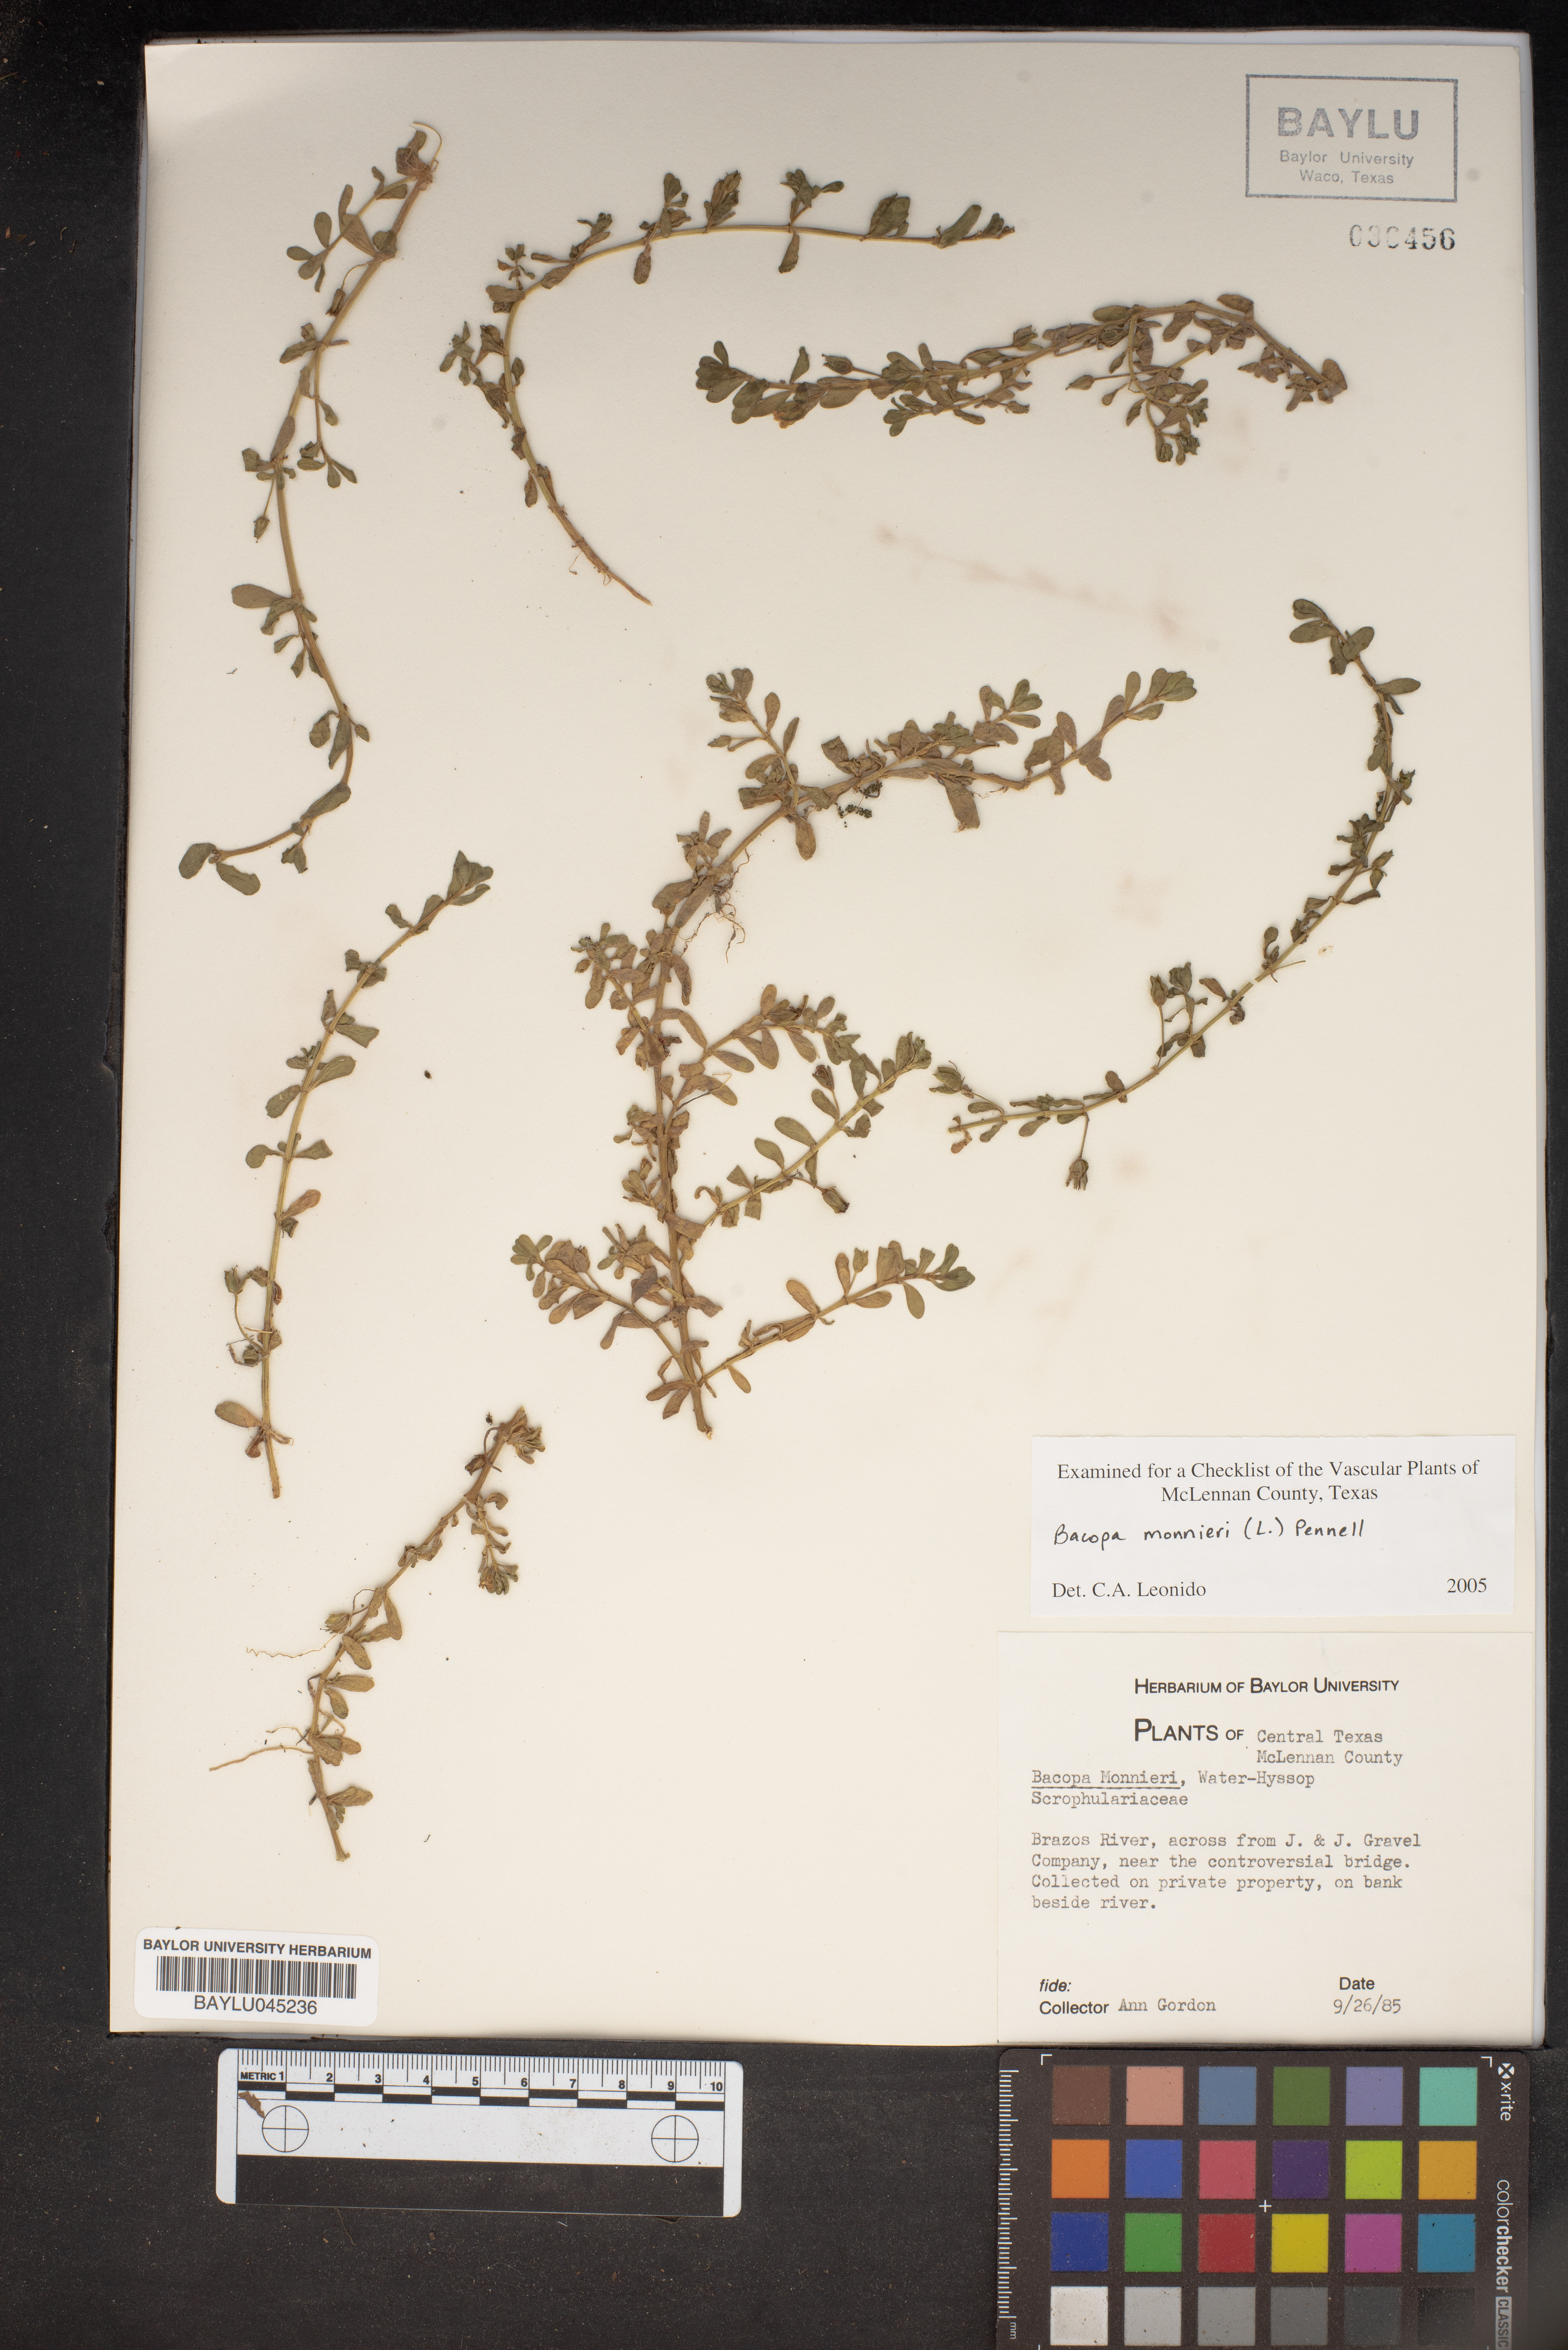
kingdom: Plantae
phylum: Tracheophyta
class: Magnoliopsida
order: Lamiales
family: Plantaginaceae
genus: Bacopa
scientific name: Bacopa monnieri
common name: Indian-pennywort
